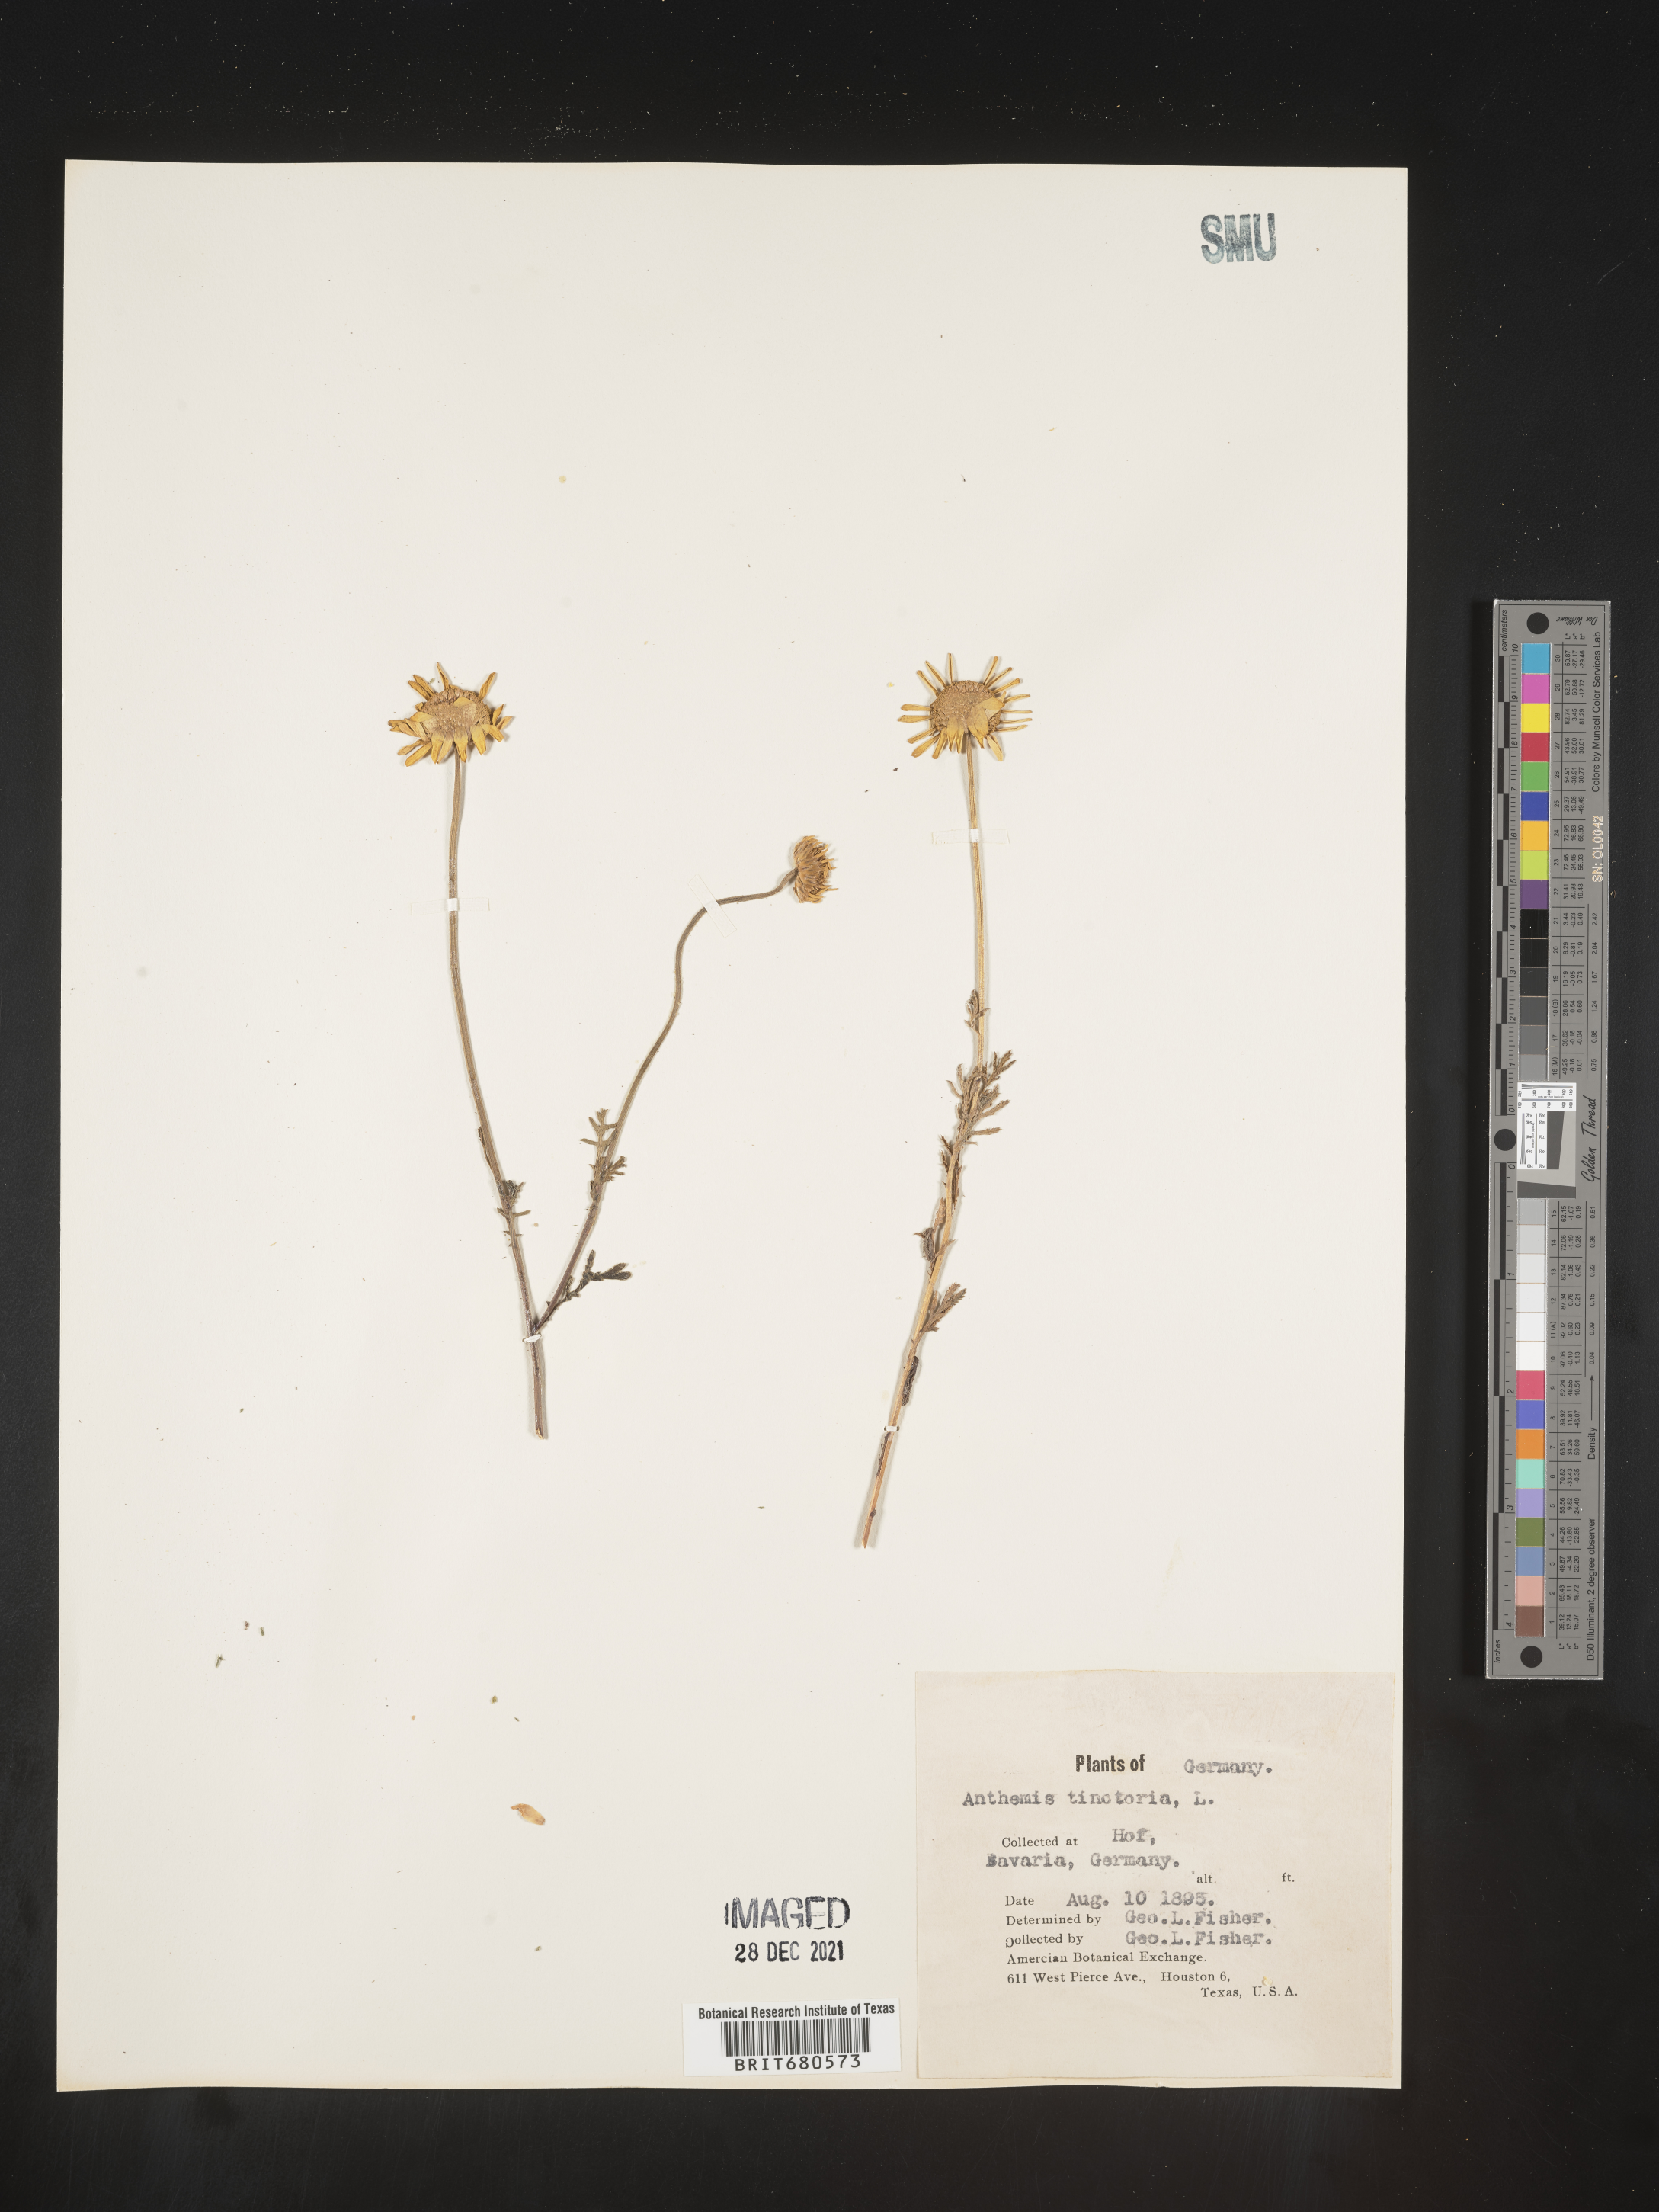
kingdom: Plantae
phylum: Tracheophyta
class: Magnoliopsida
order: Asterales
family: Asteraceae
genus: Anthemis
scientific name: Anthemis
